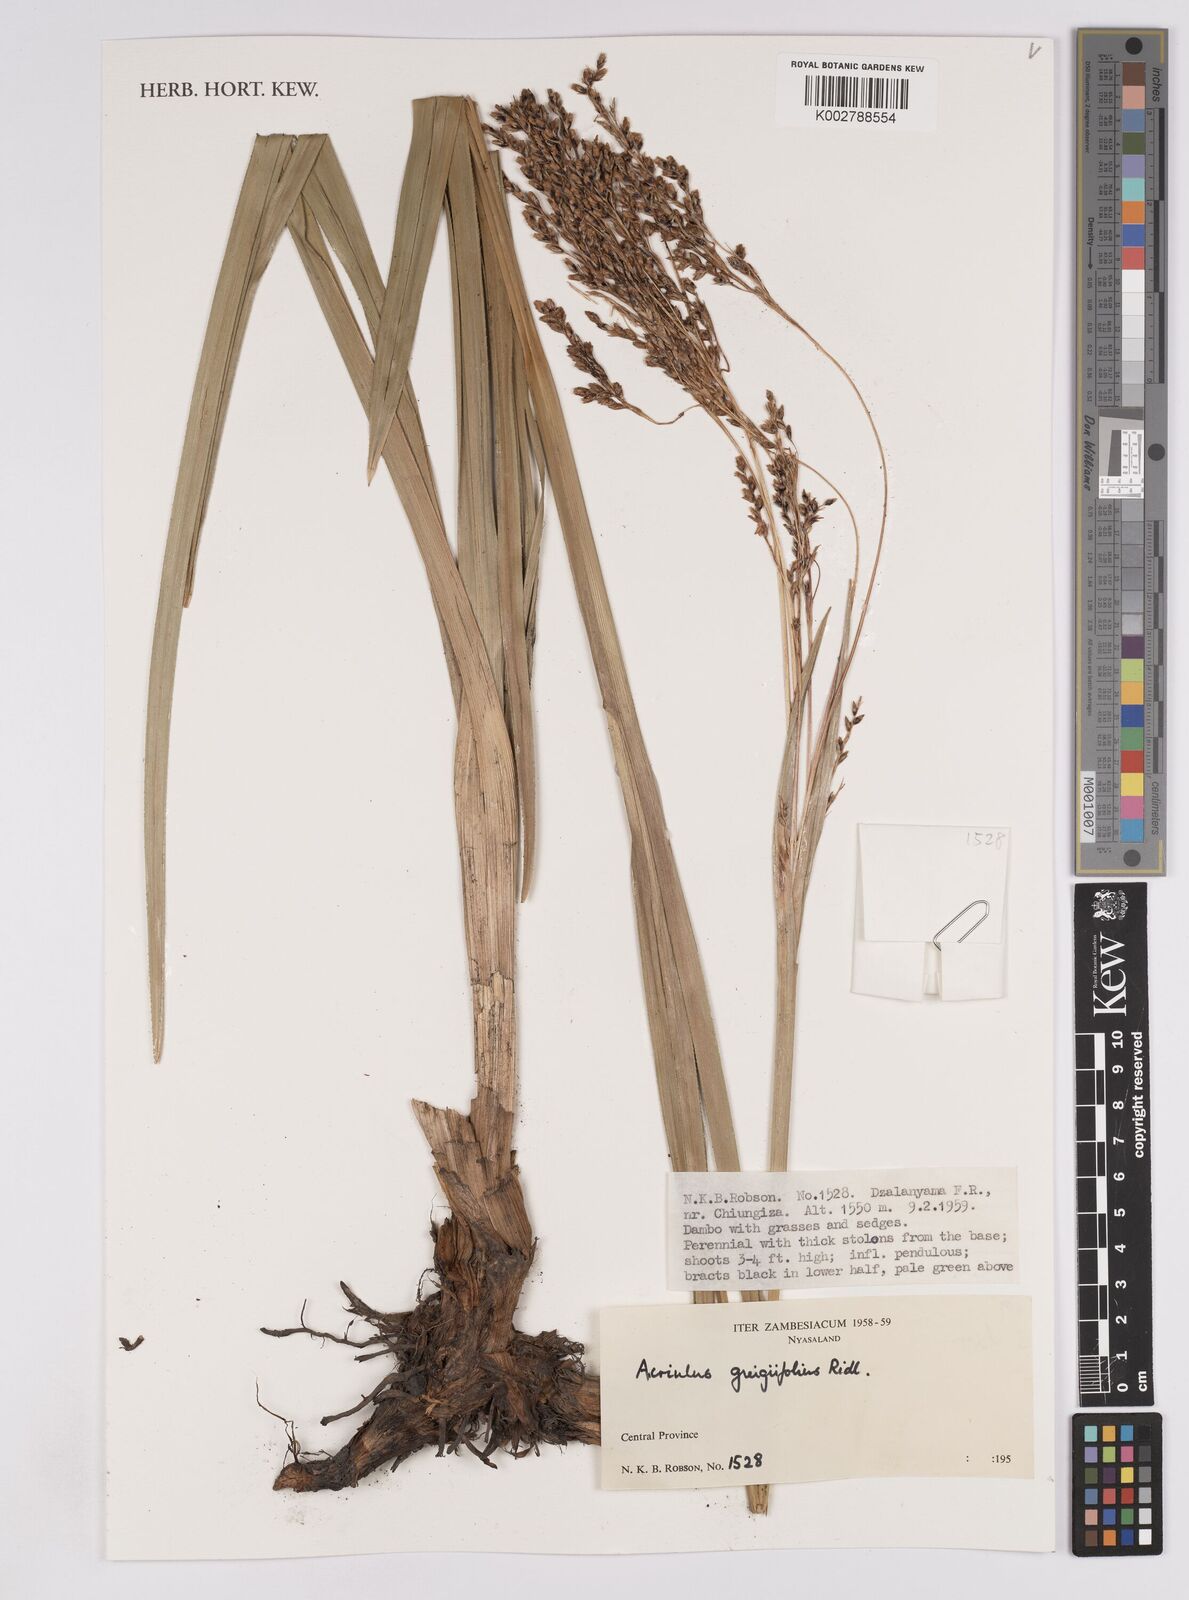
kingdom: Plantae
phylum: Tracheophyta
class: Liliopsida
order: Poales
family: Cyperaceae
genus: Scleria
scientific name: Scleria greigiifolia
